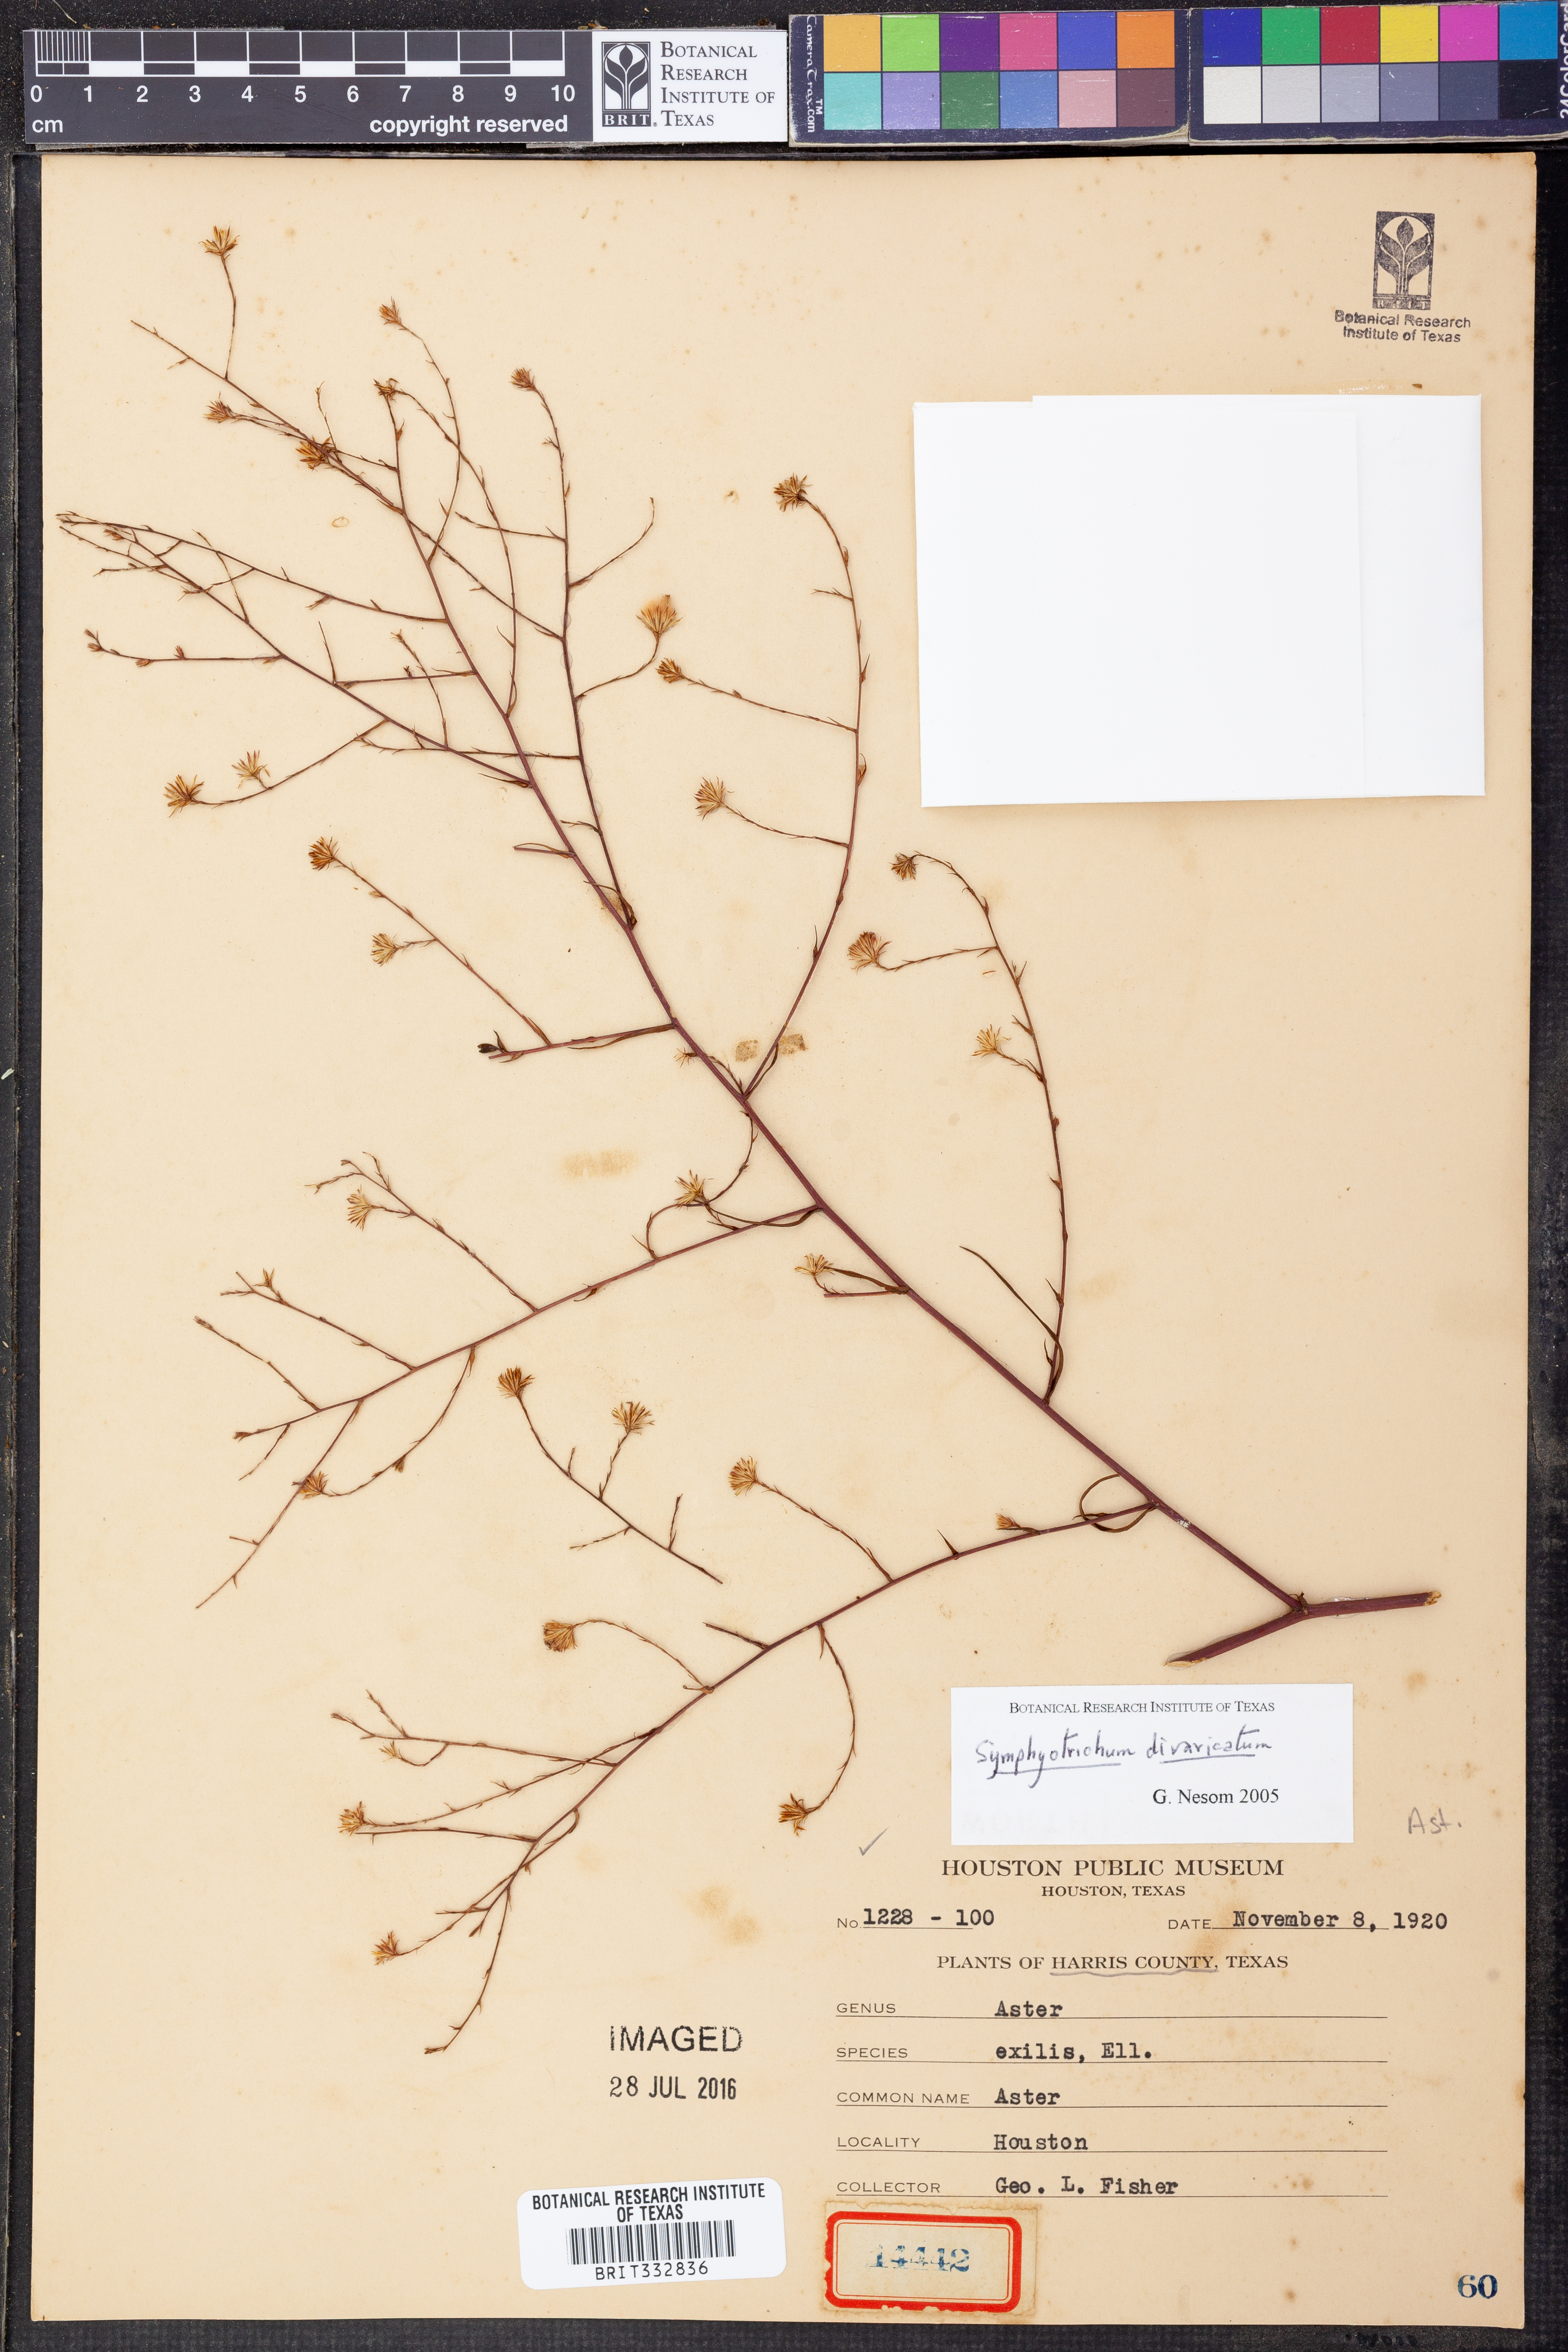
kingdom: Plantae
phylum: Tracheophyta
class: Magnoliopsida
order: Asterales
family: Asteraceae
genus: Symphyotrichum
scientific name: Symphyotrichum divaricatum
